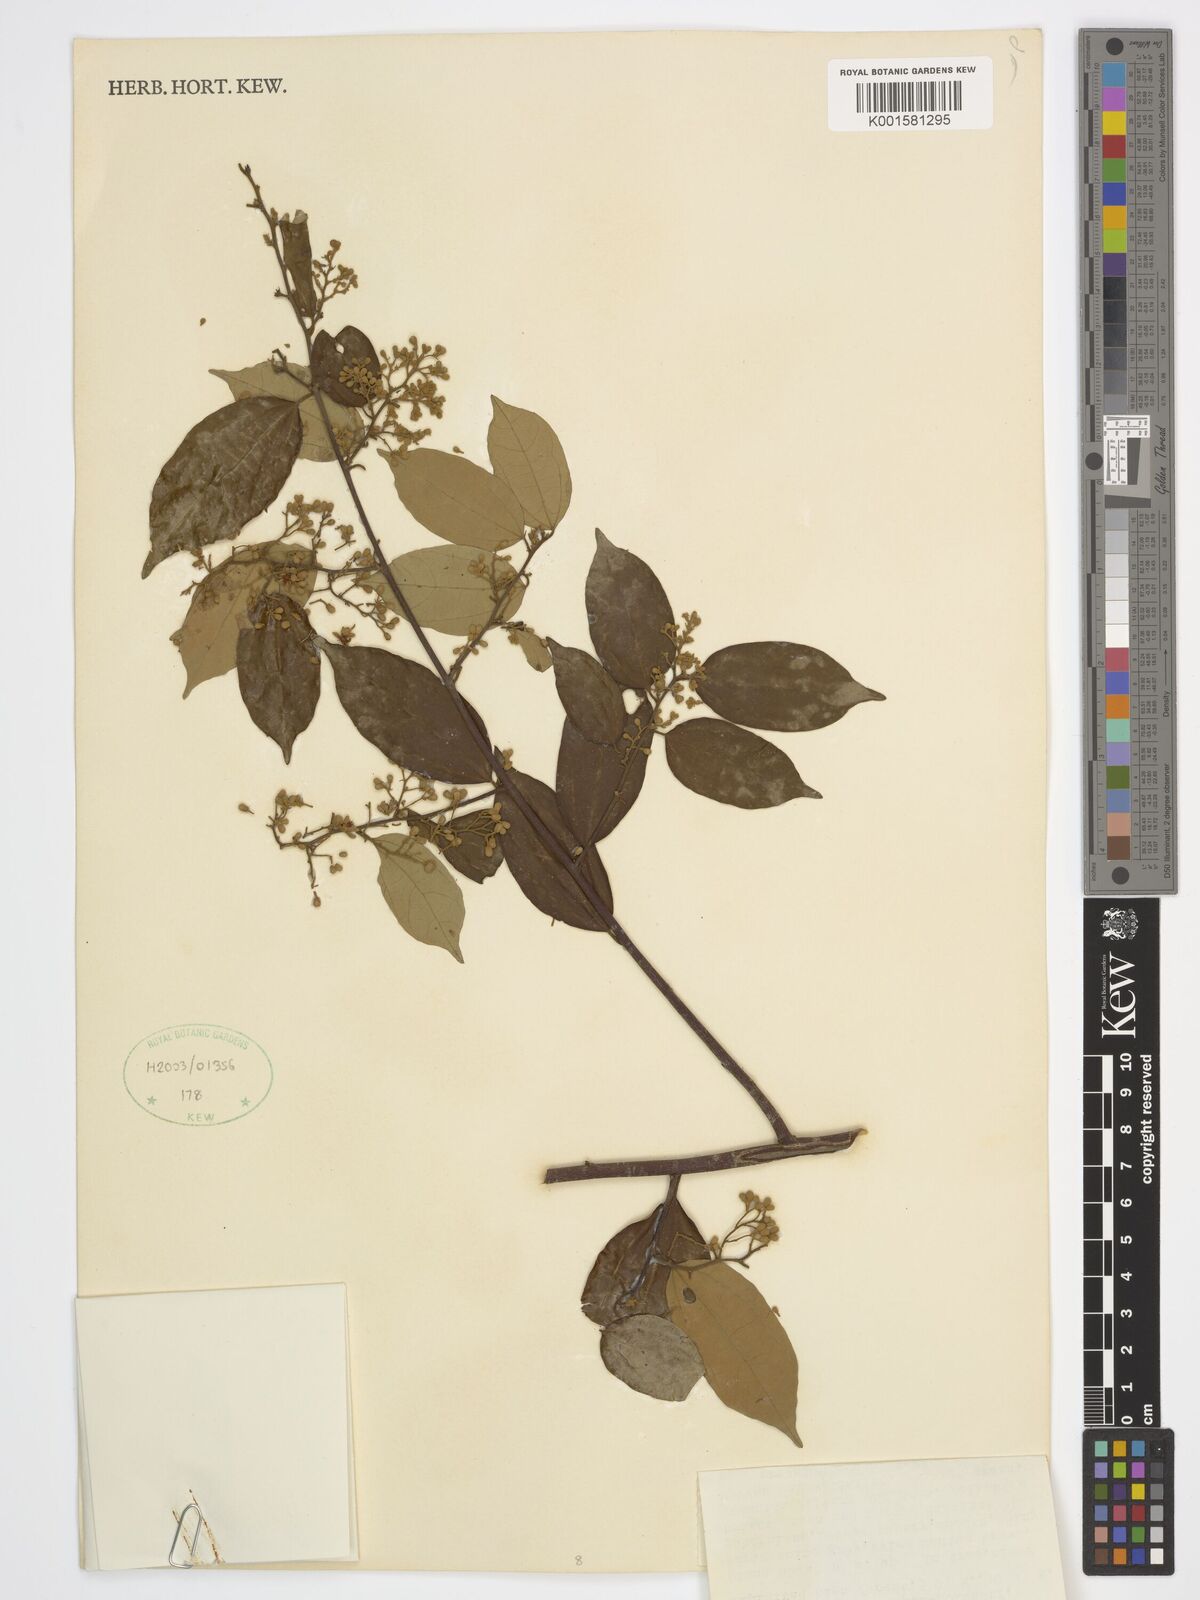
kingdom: Plantae
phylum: Tracheophyta
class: Magnoliopsida
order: Malvales
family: Malvaceae
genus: Microcos
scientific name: Microcos malacocarpa
